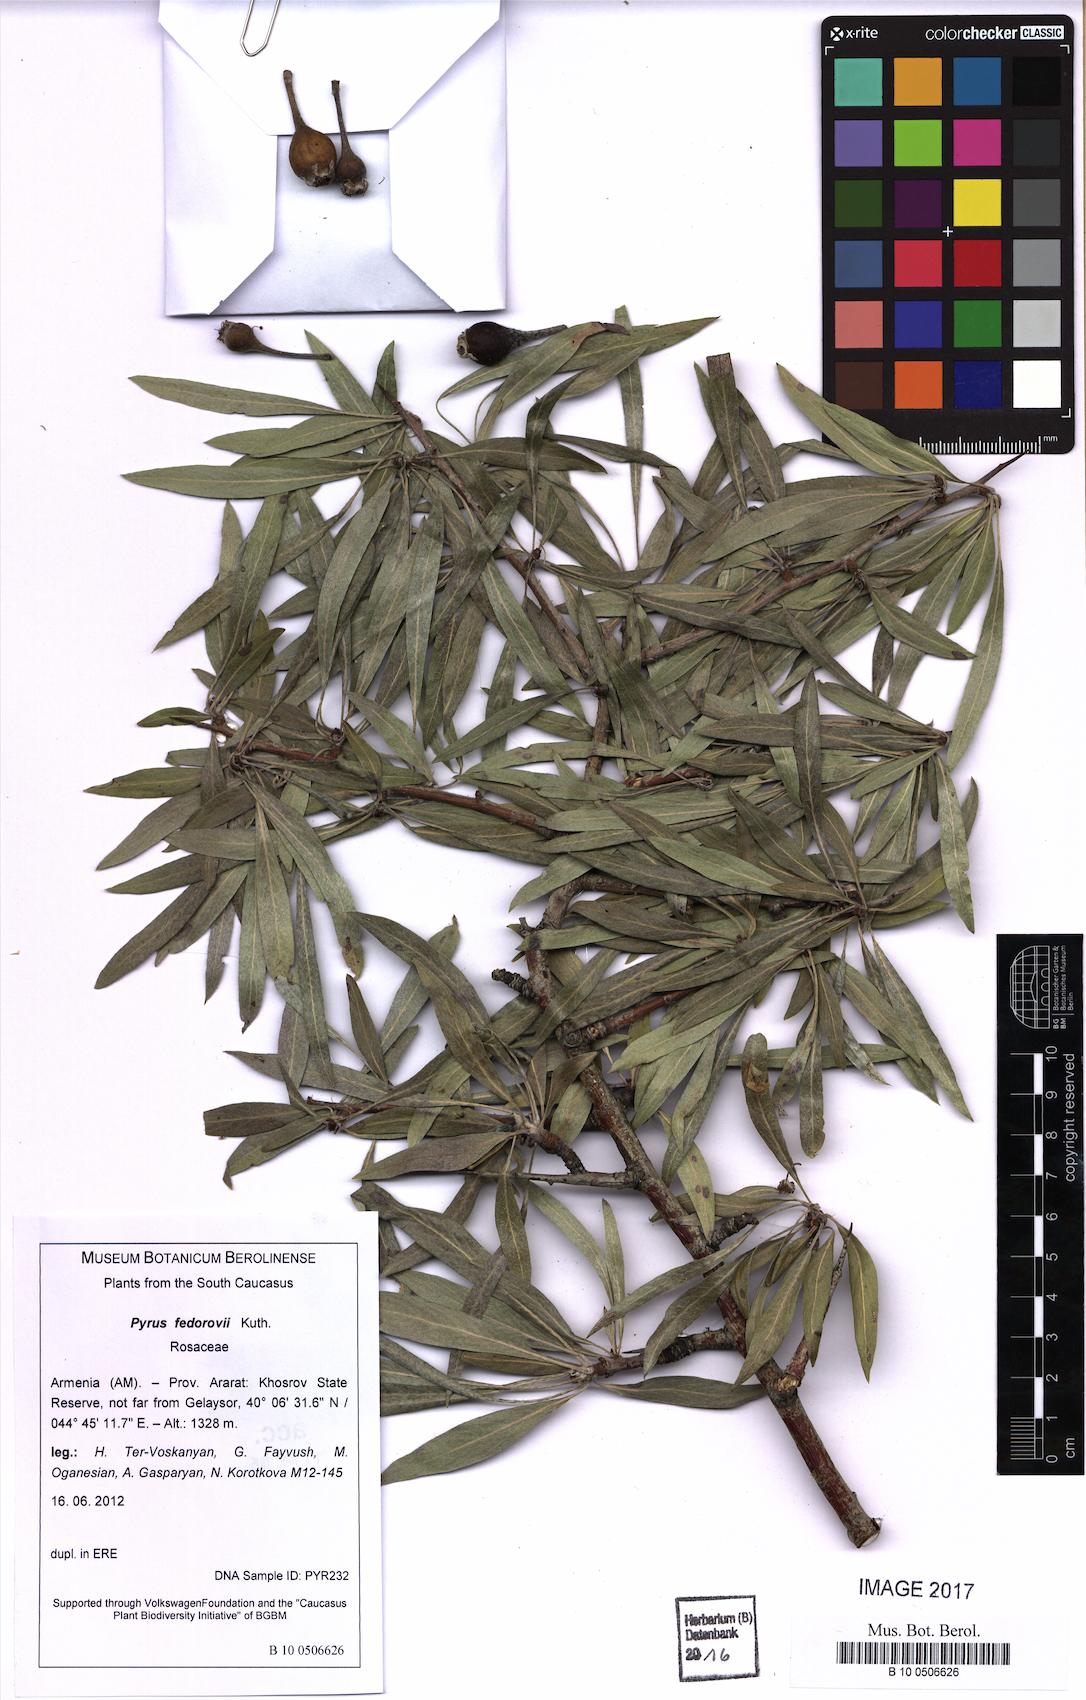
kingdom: Plantae
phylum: Tracheophyta
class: Magnoliopsida
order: Rosales
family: Rosaceae
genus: Pyrus
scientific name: Pyrus fedorovii
